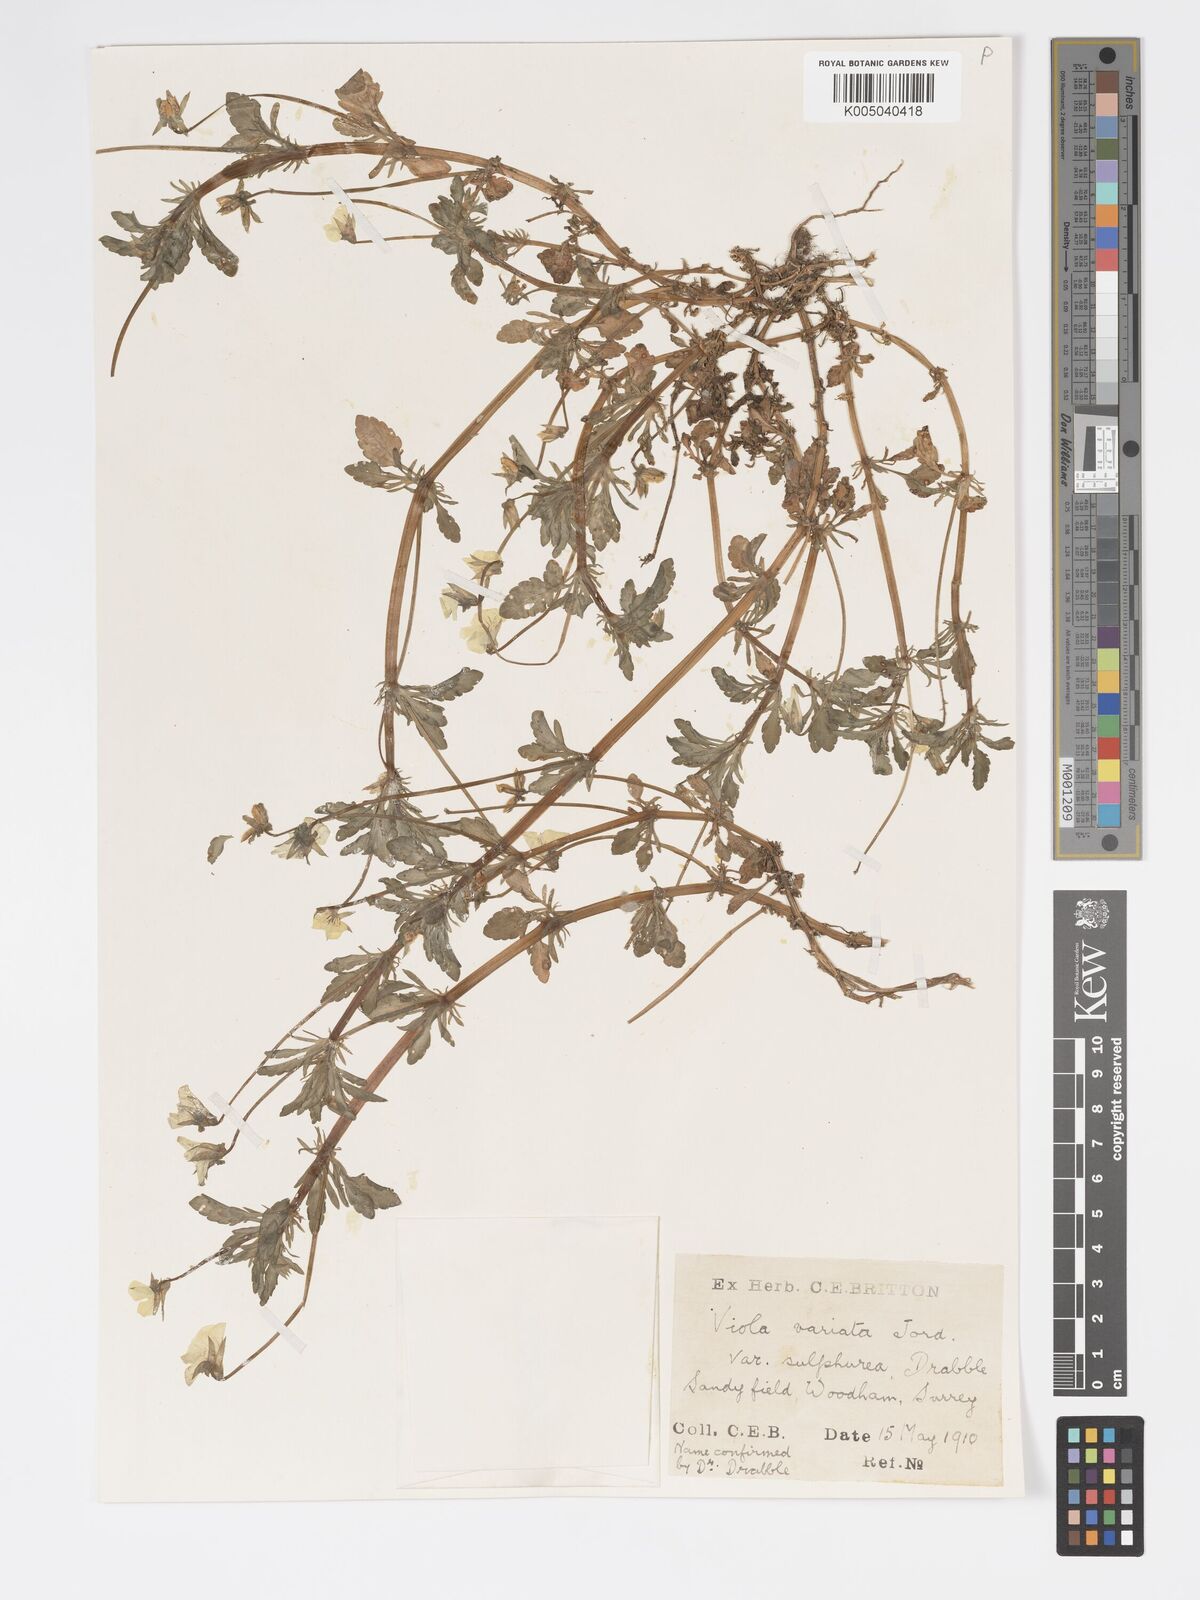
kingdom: Plantae
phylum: Tracheophyta
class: Magnoliopsida
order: Malpighiales
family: Violaceae
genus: Viola
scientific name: Viola arvensis
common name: Field pansy
